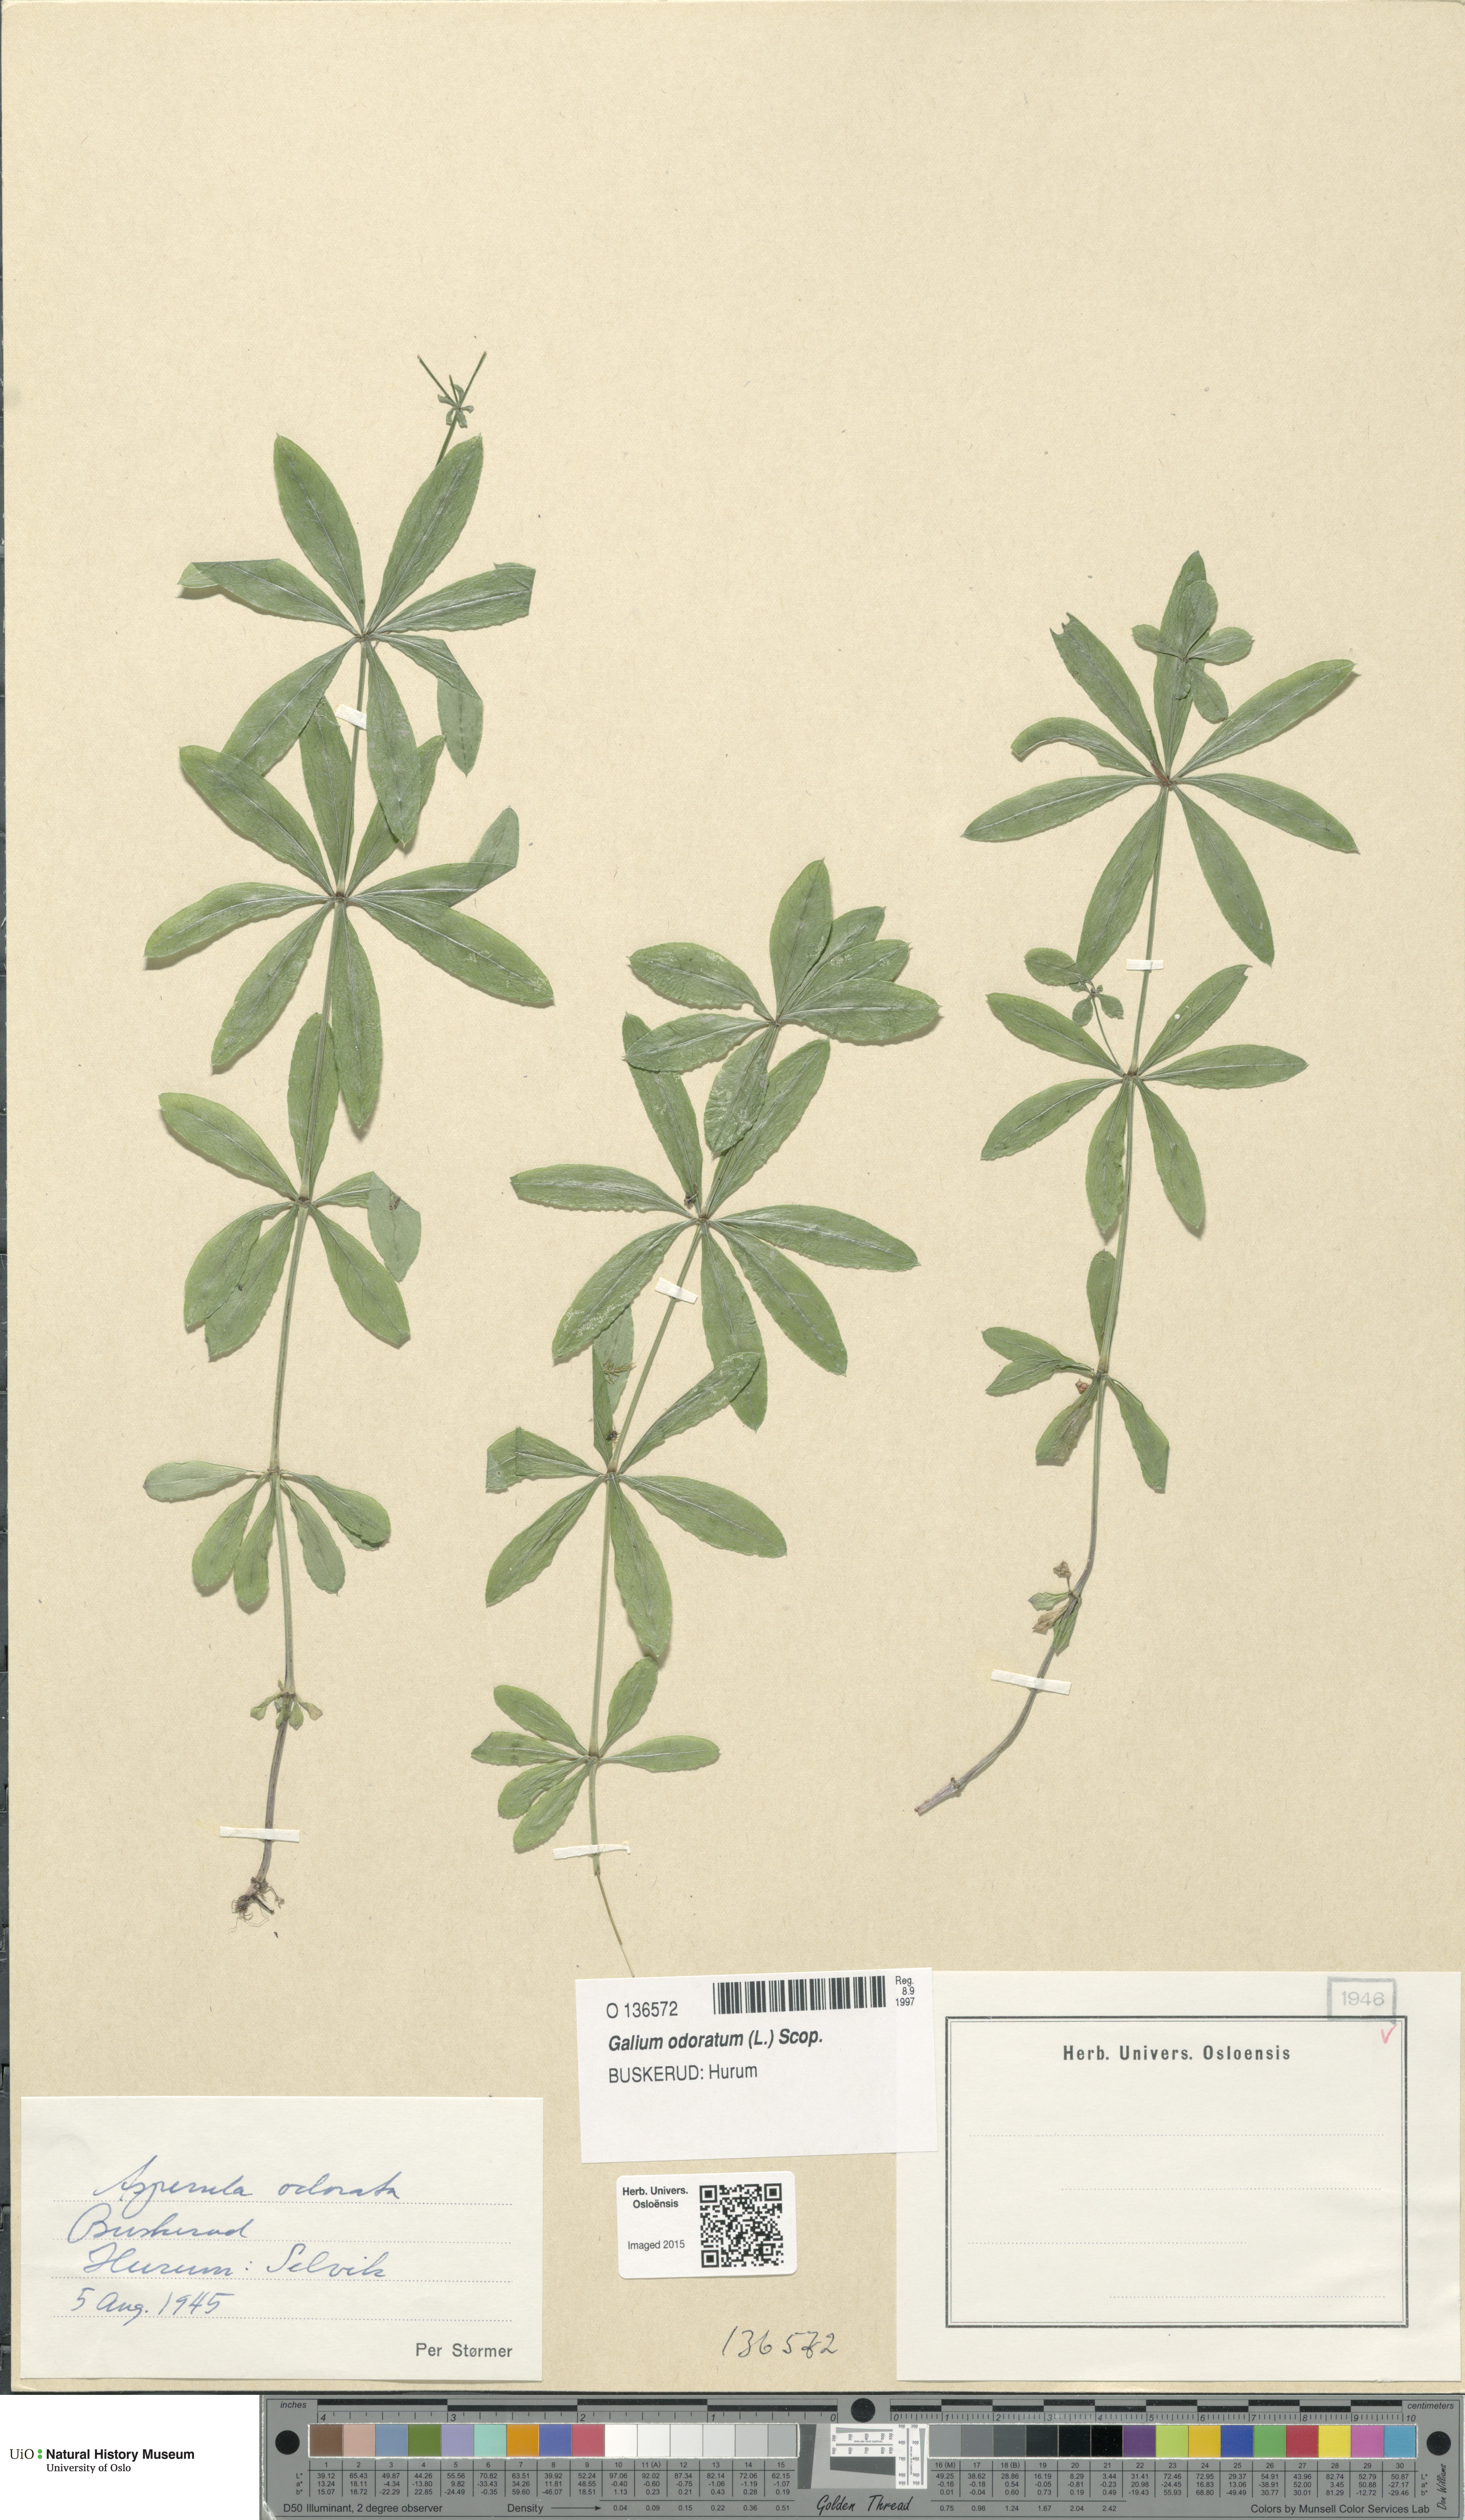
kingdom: Plantae
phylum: Tracheophyta
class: Magnoliopsida
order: Gentianales
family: Rubiaceae
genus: Galium
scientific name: Galium odoratum
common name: Sweet woodruff
